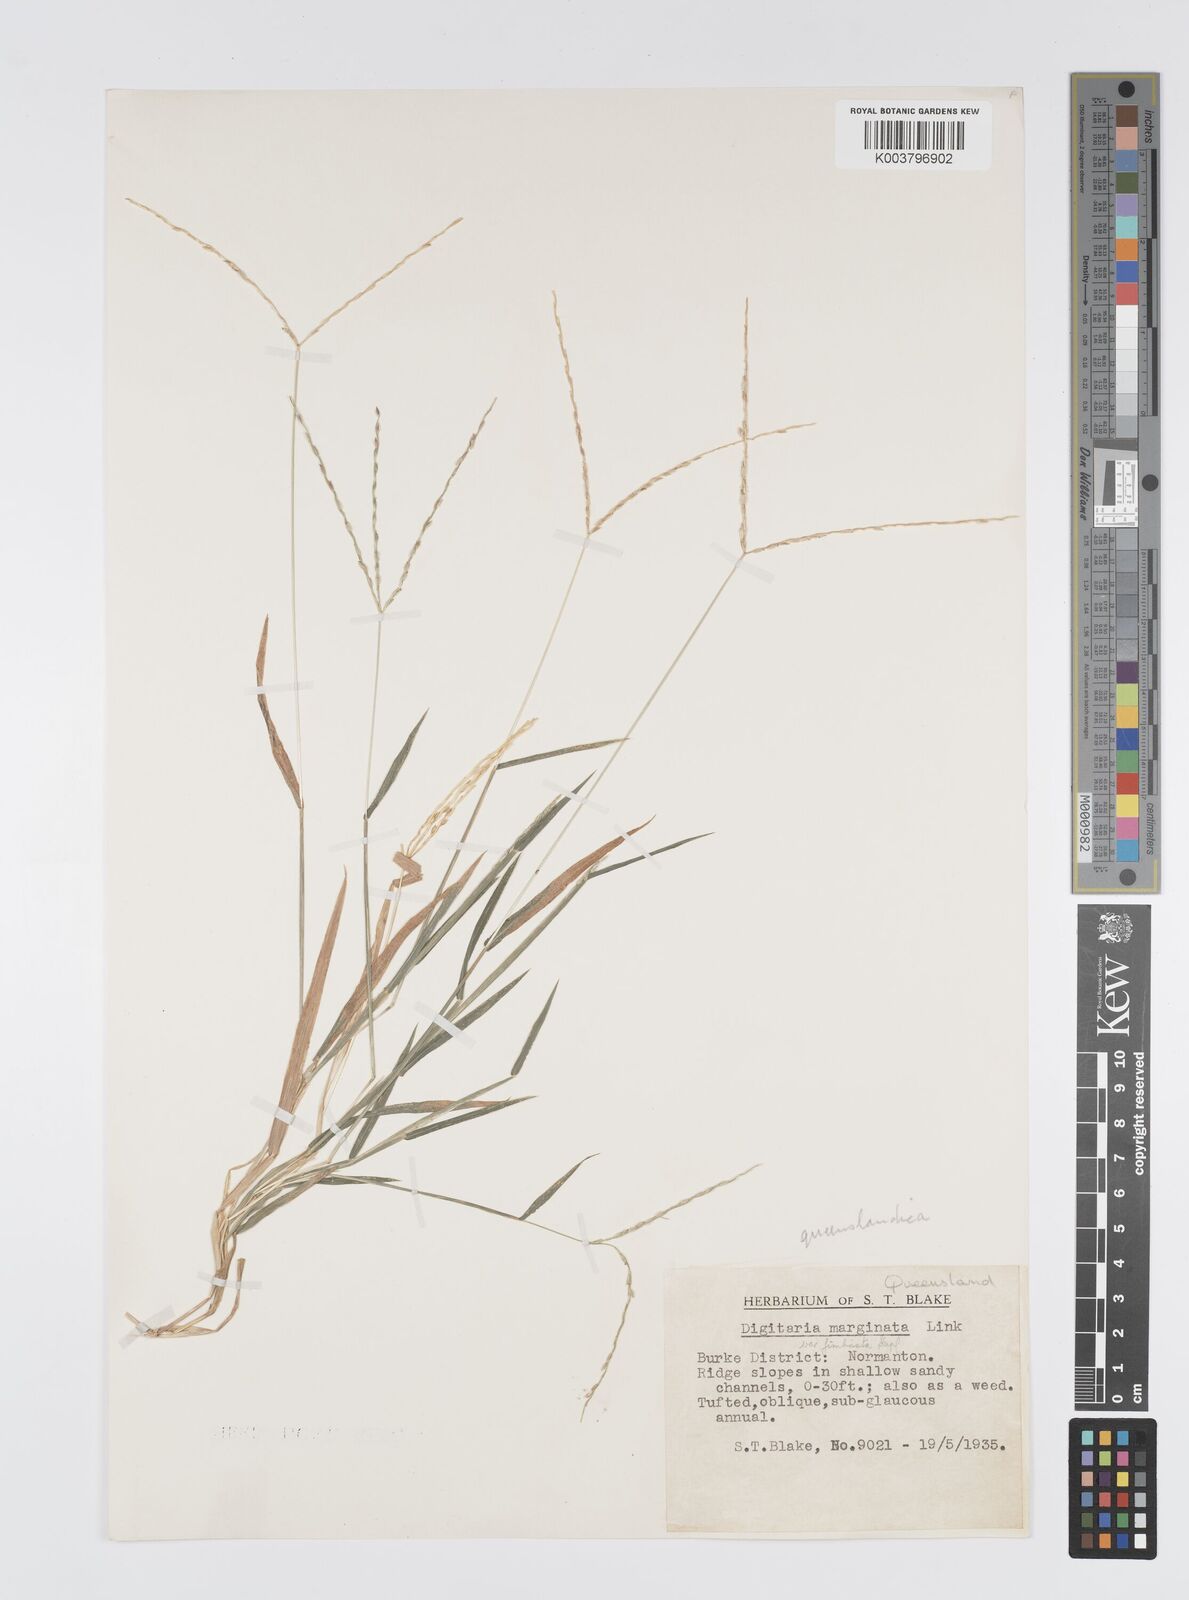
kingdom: Plantae
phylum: Tracheophyta
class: Liliopsida
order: Poales
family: Poaceae
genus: Digitaria
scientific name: Digitaria bicornis
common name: Asian crabgrass
